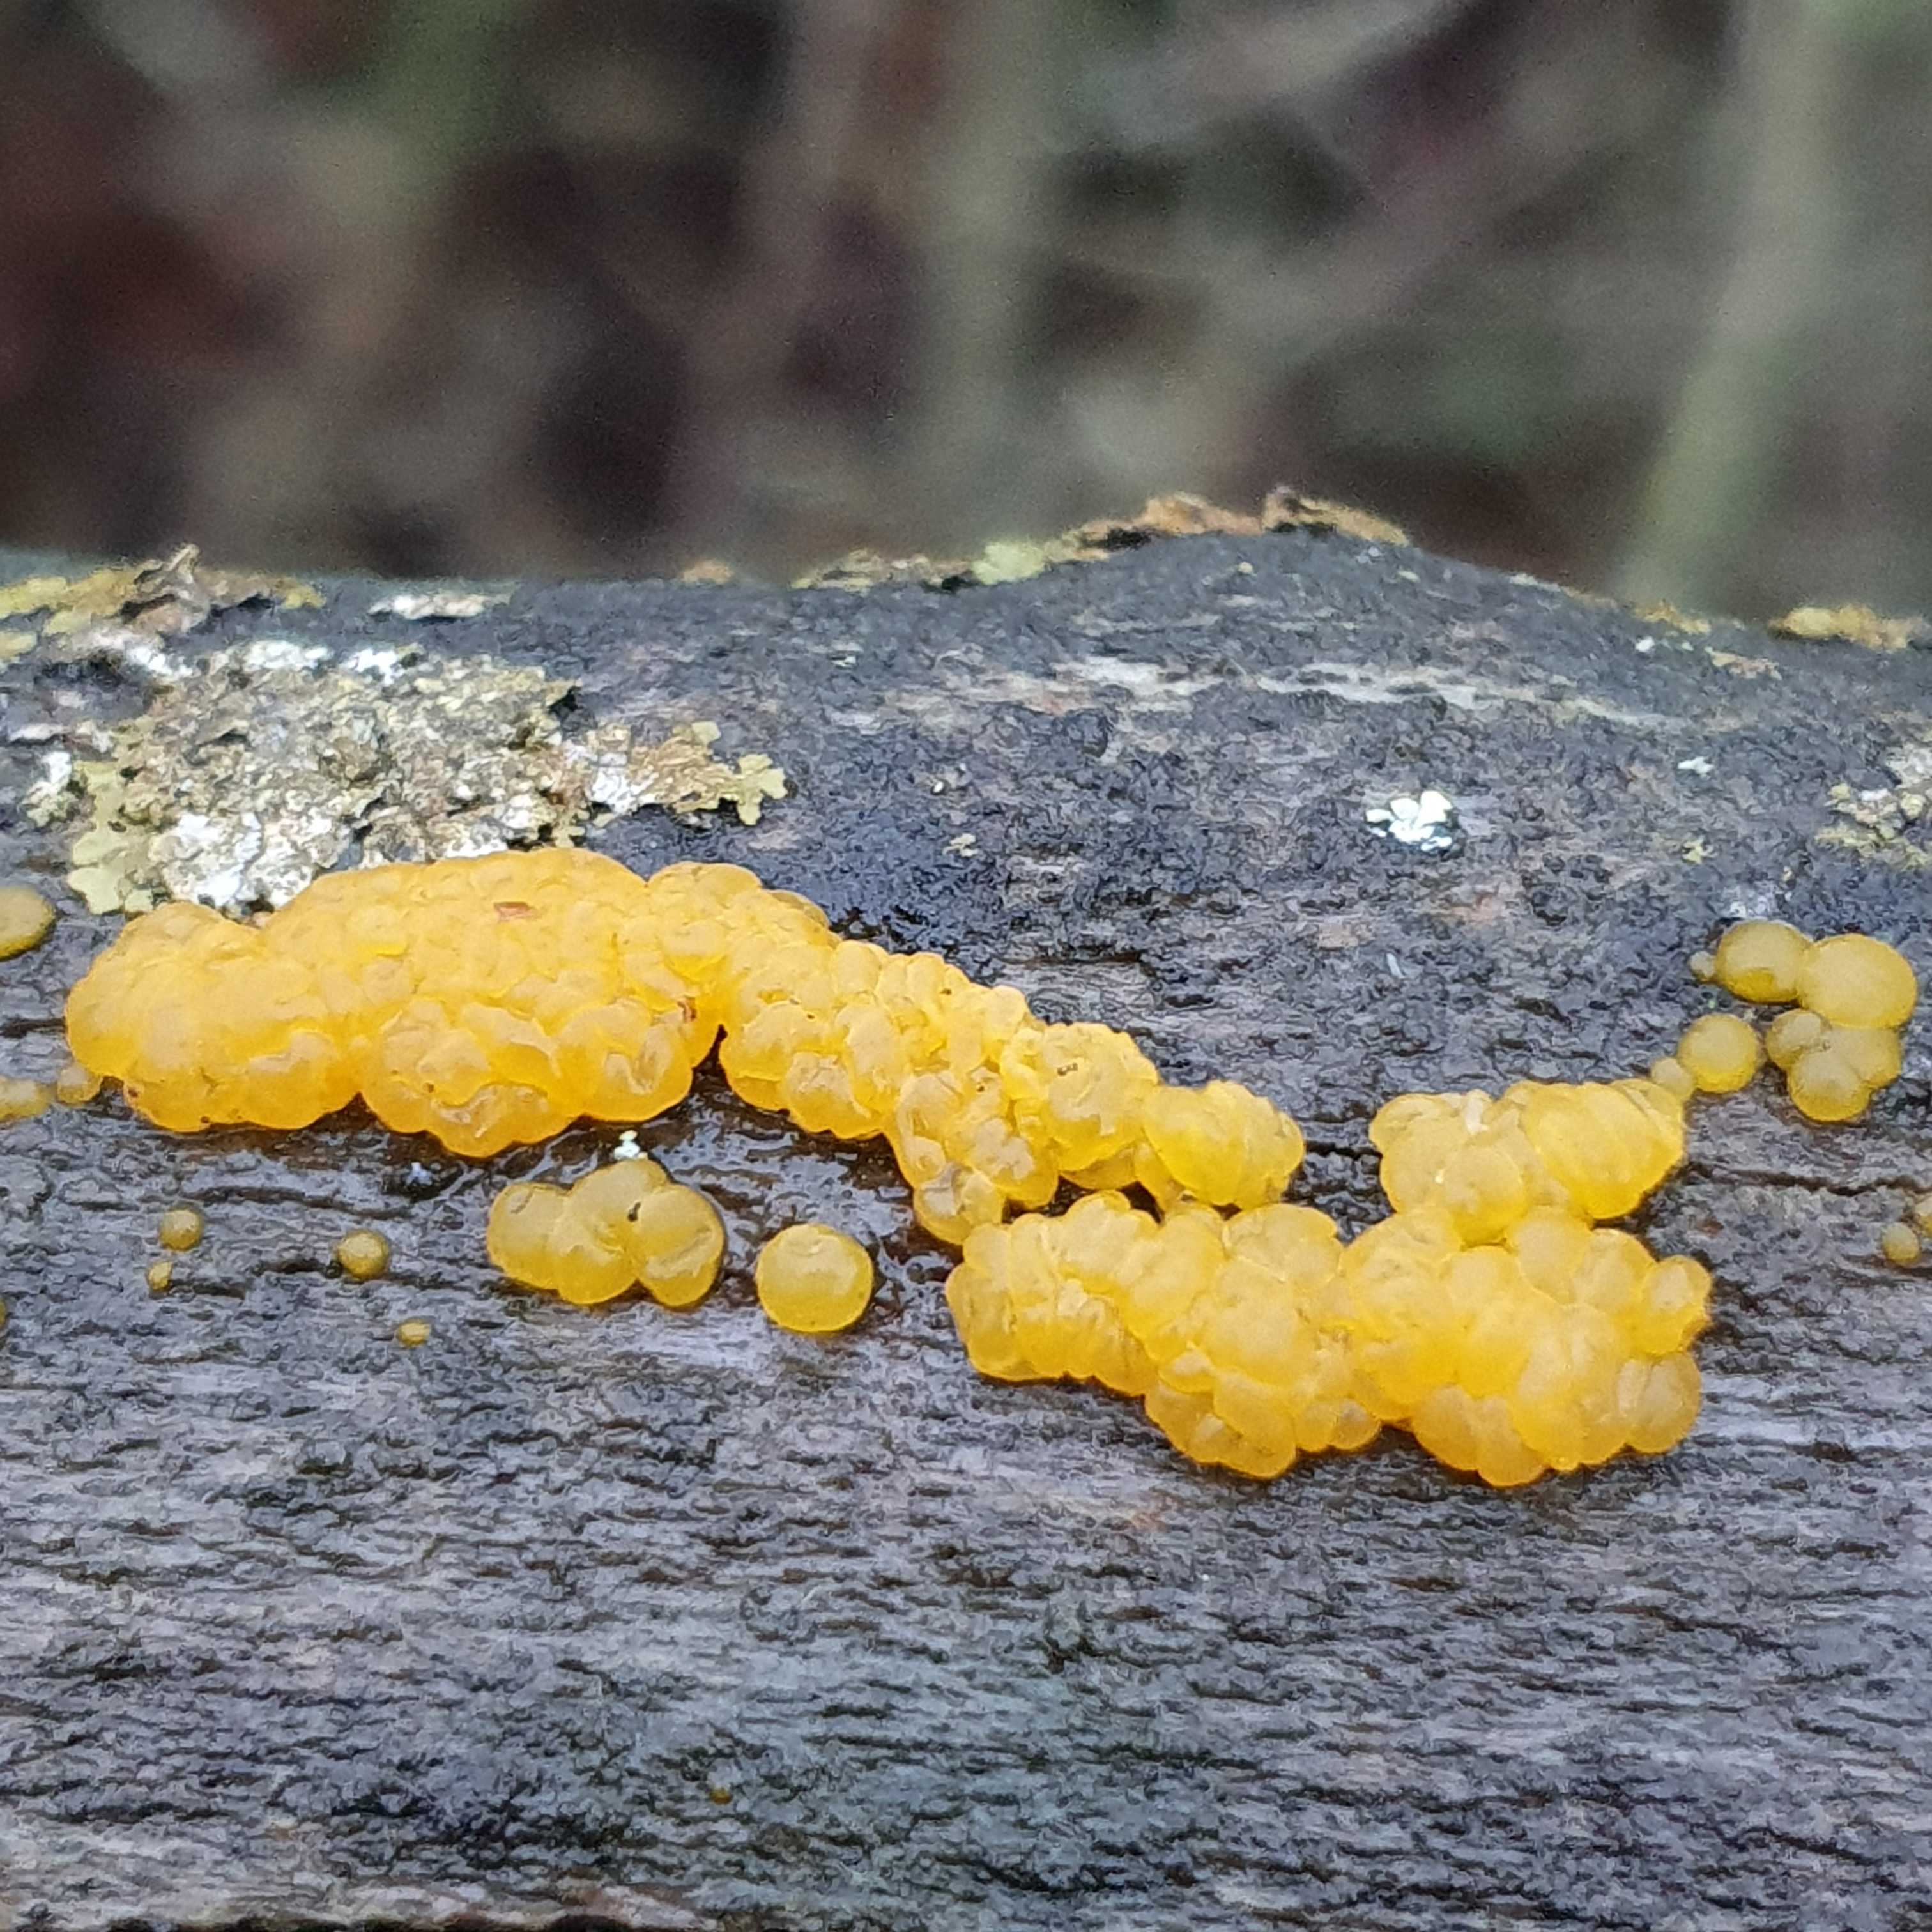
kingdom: Fungi
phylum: Basidiomycota
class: Dacrymycetes
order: Dacrymycetales
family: Dacrymycetaceae
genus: Dacrymyces
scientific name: Dacrymyces lacrymalis
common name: rynket tåresvamp
